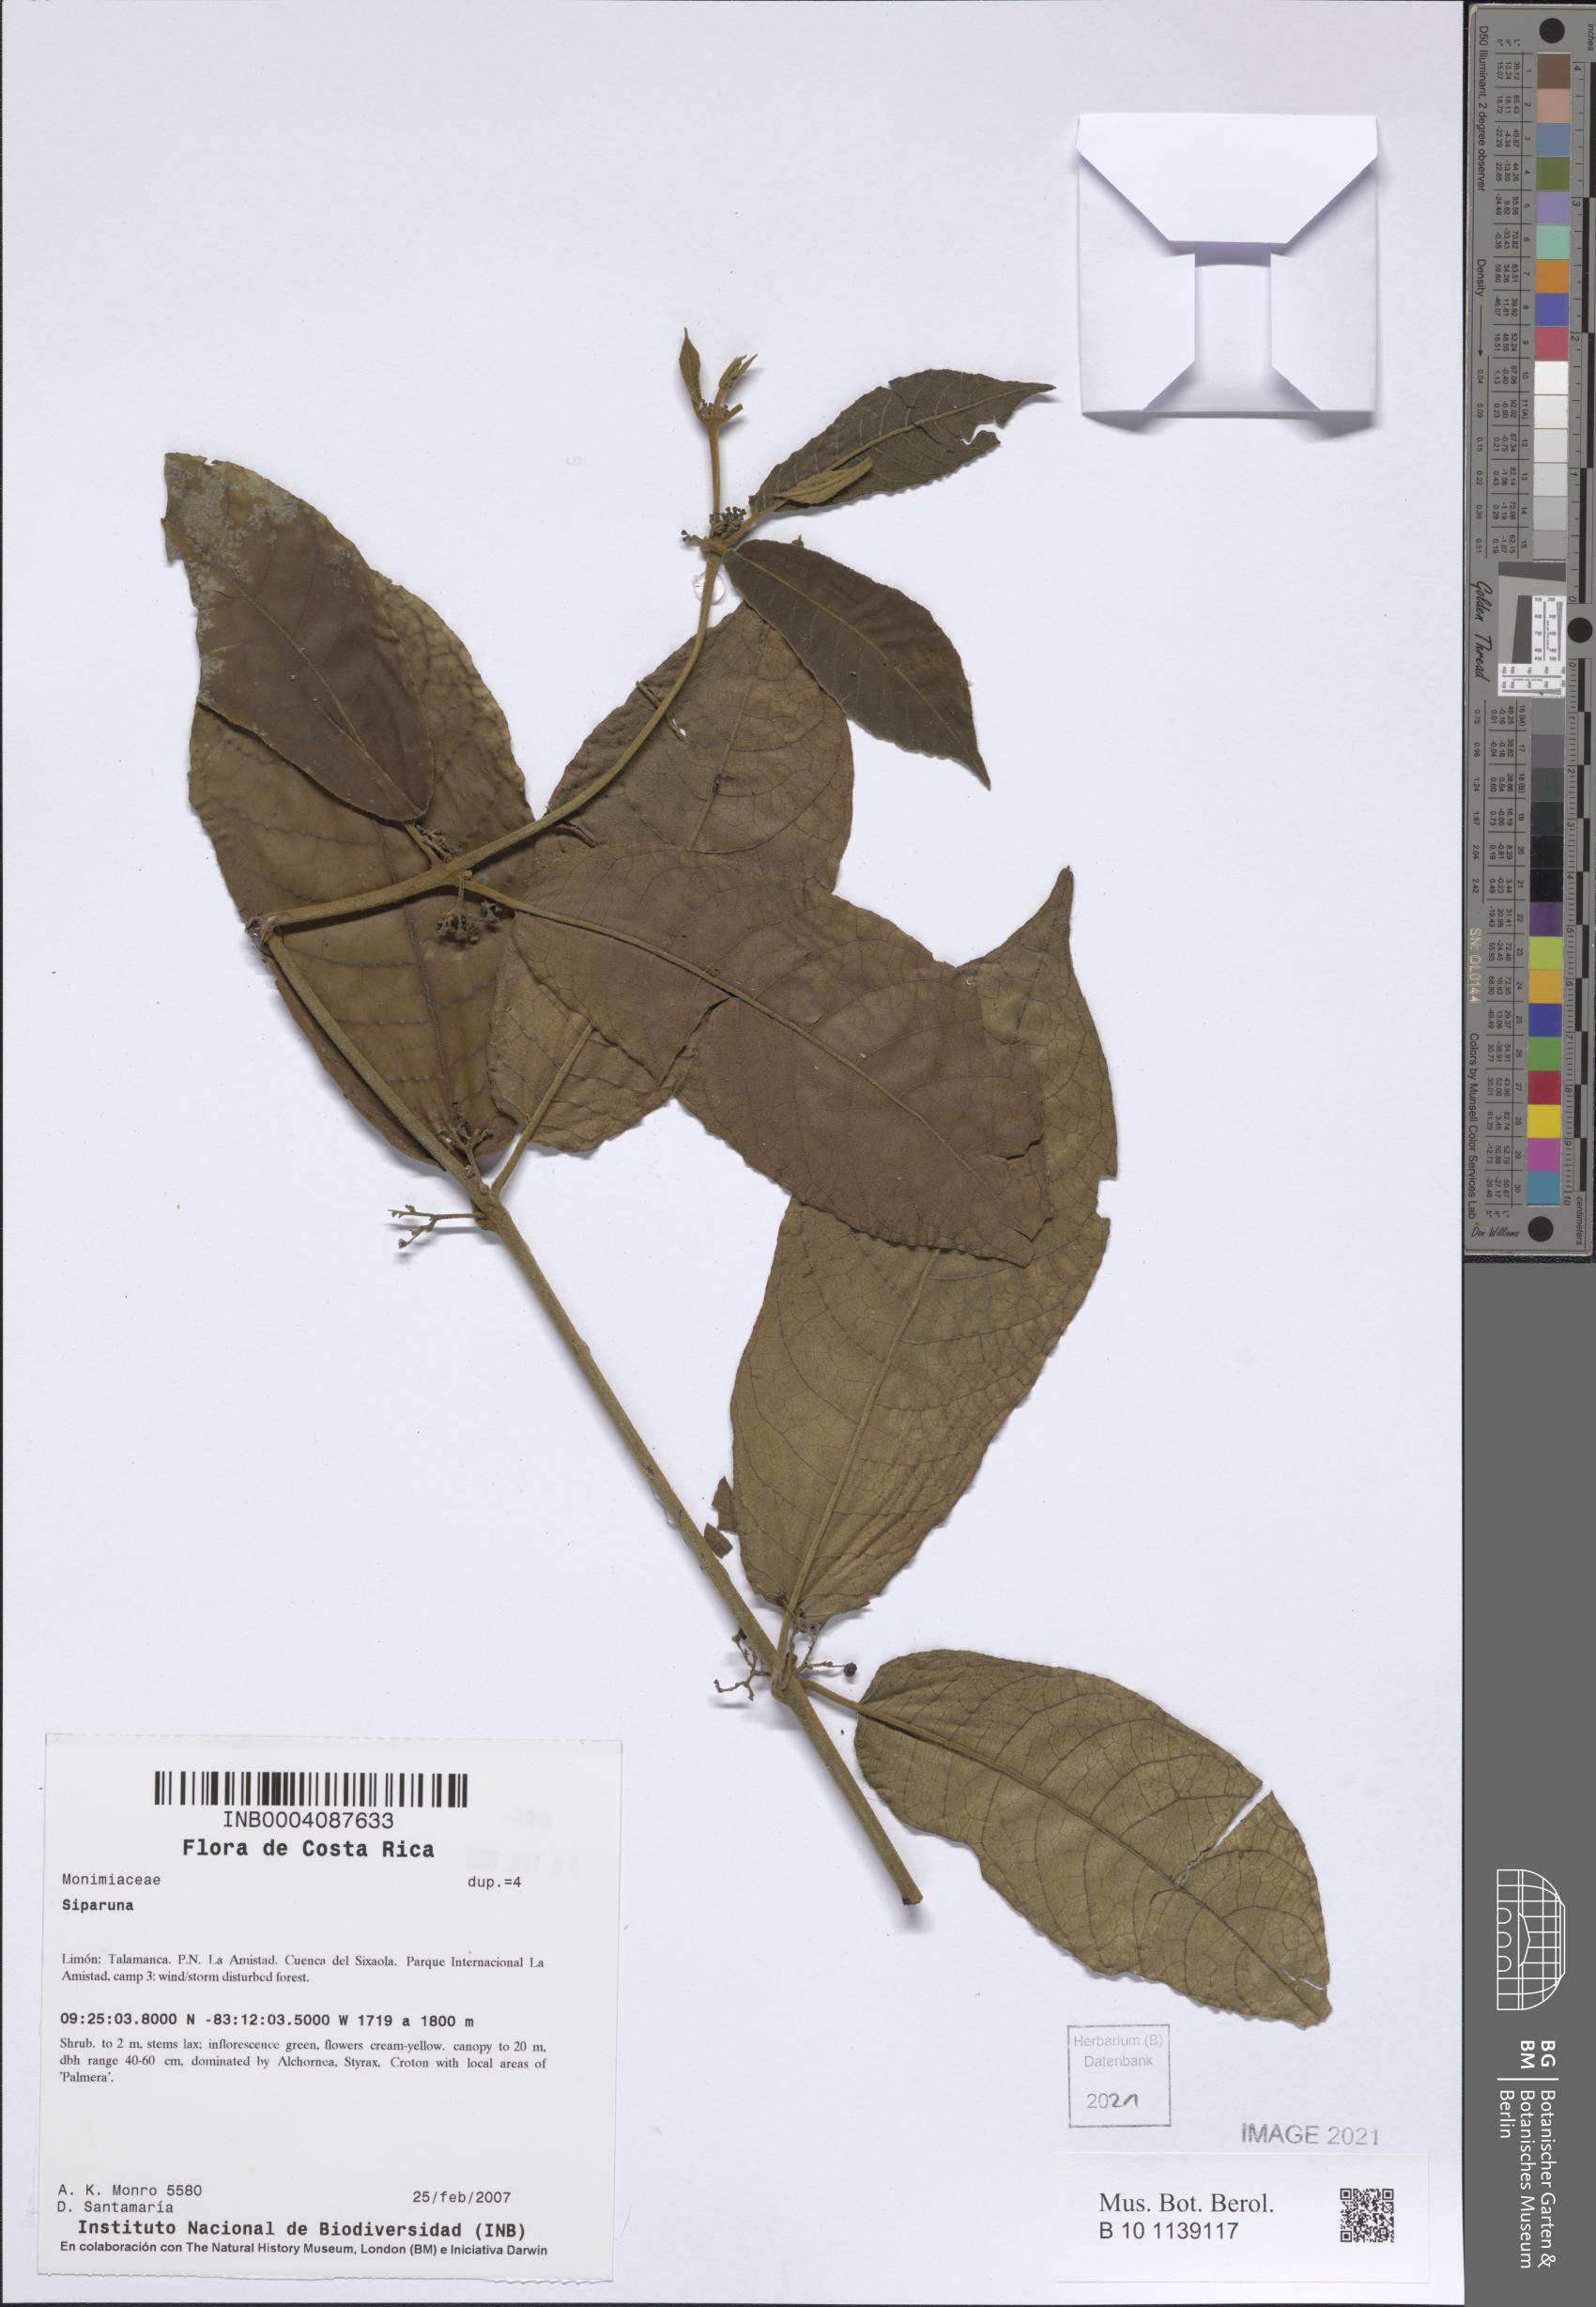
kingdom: Plantae
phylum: Tracheophyta
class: Magnoliopsida
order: Laurales
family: Siparunaceae
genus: Siparuna
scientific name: Siparuna
